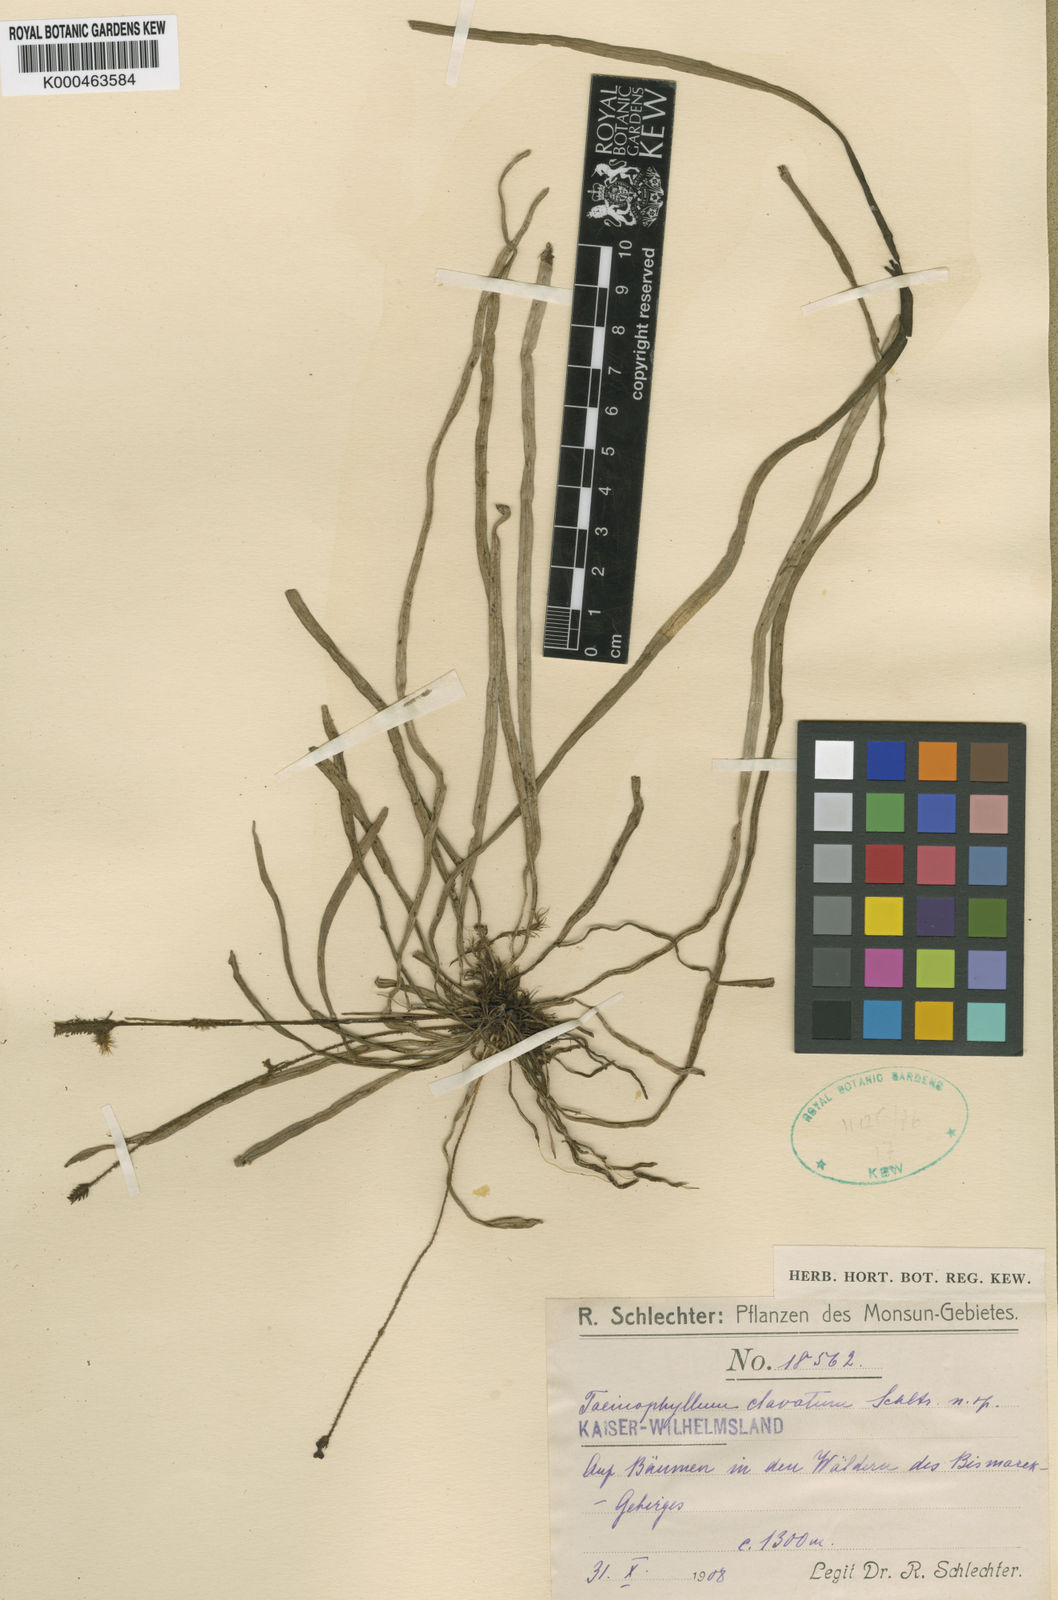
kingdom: Plantae
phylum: Tracheophyta
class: Liliopsida
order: Asparagales
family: Orchidaceae
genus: Taeniophyllum
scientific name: Taeniophyllum clavatum
